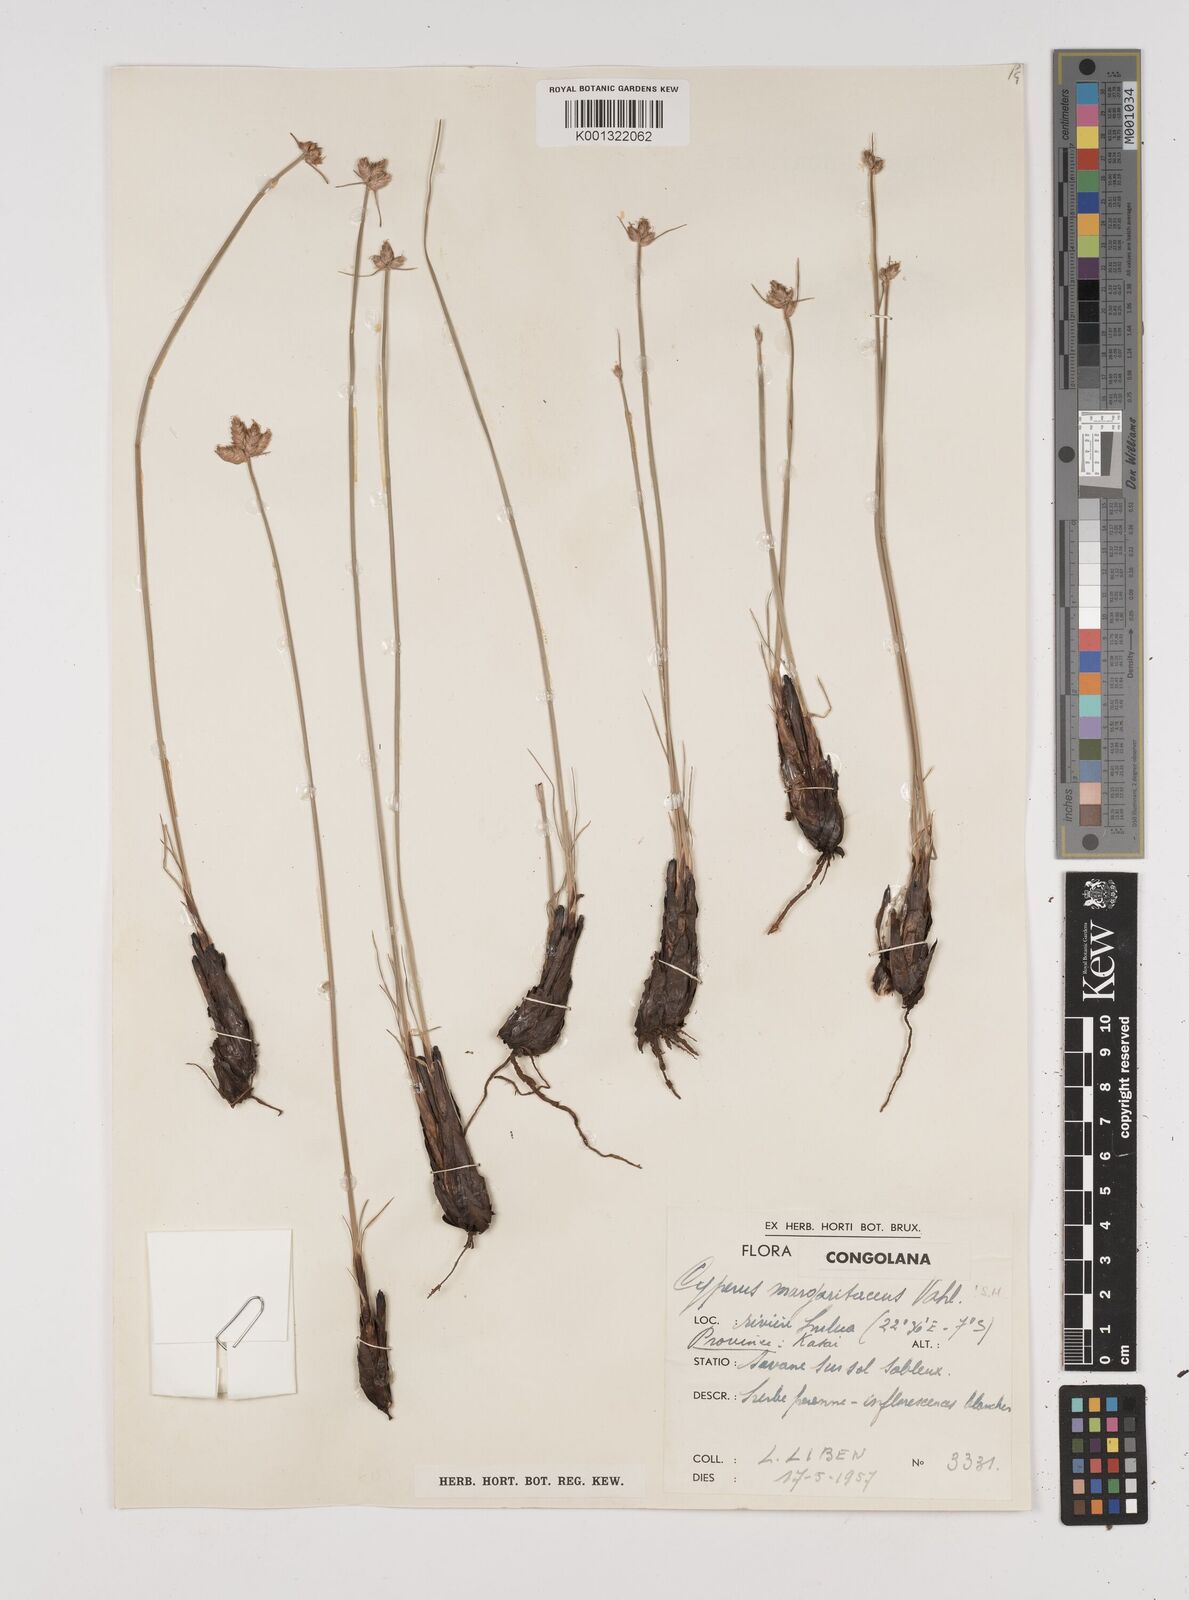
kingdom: Plantae
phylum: Tracheophyta
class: Liliopsida
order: Poales
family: Cyperaceae
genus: Cyperus
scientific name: Cyperus nduru
